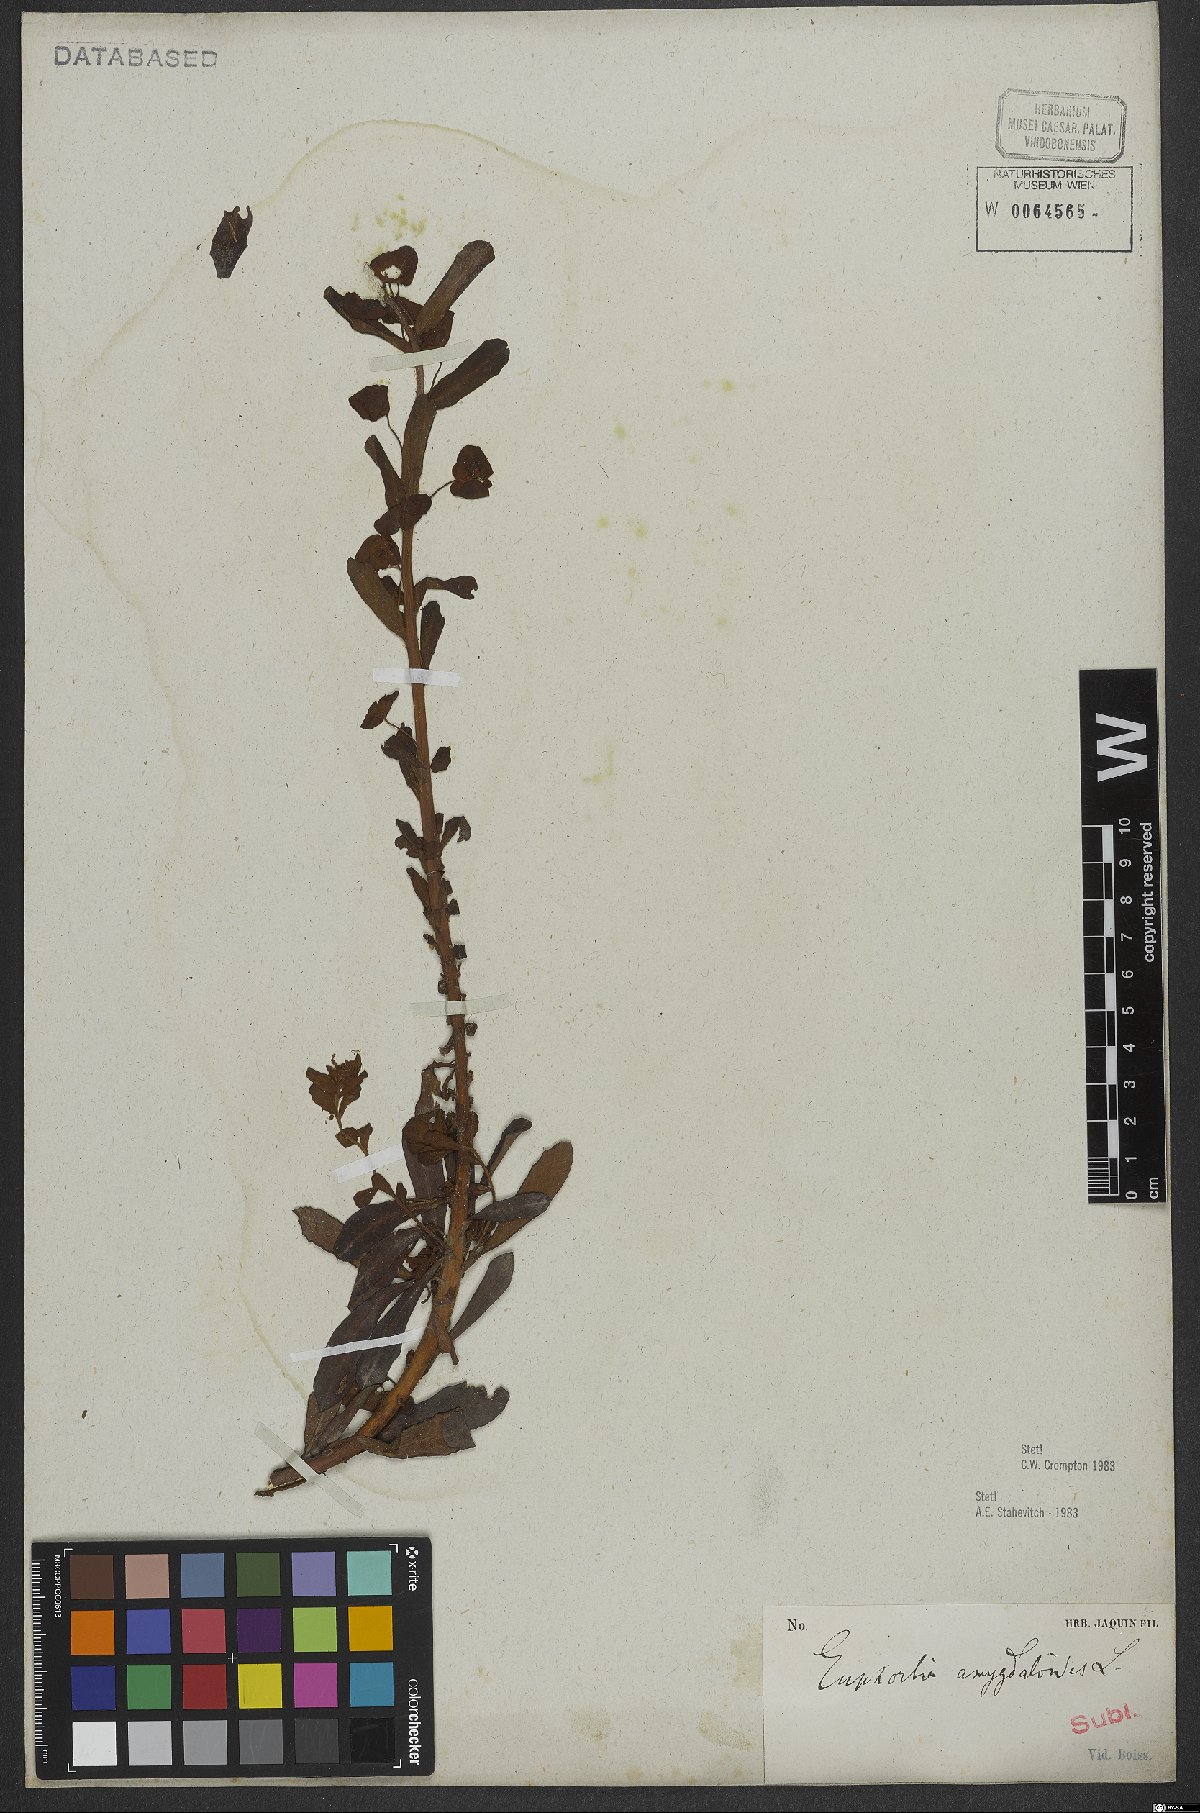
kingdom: Plantae
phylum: Tracheophyta
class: Magnoliopsida
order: Malpighiales
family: Euphorbiaceae
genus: Euphorbia
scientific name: Euphorbia amygdaloides
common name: Wood spurge
